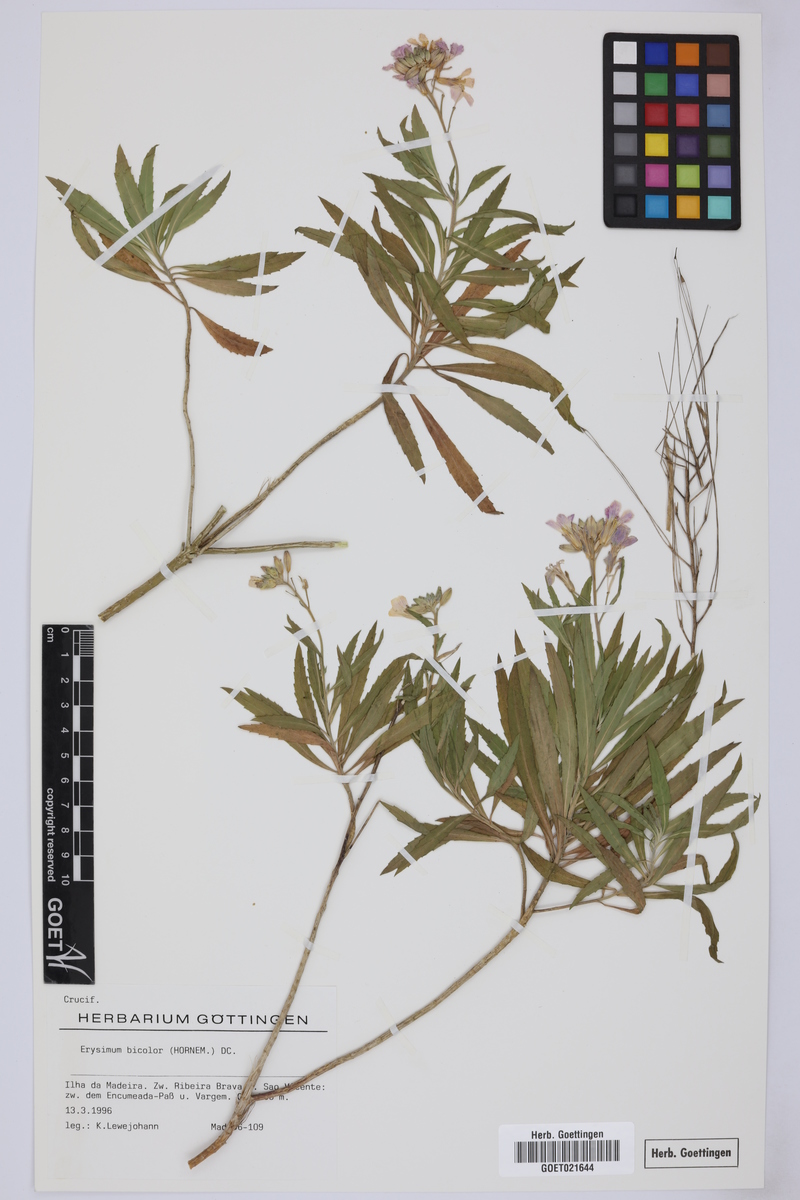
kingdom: Plantae
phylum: Tracheophyta
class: Magnoliopsida
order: Brassicales
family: Brassicaceae
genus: Erysimum
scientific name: Erysimum bicolor
